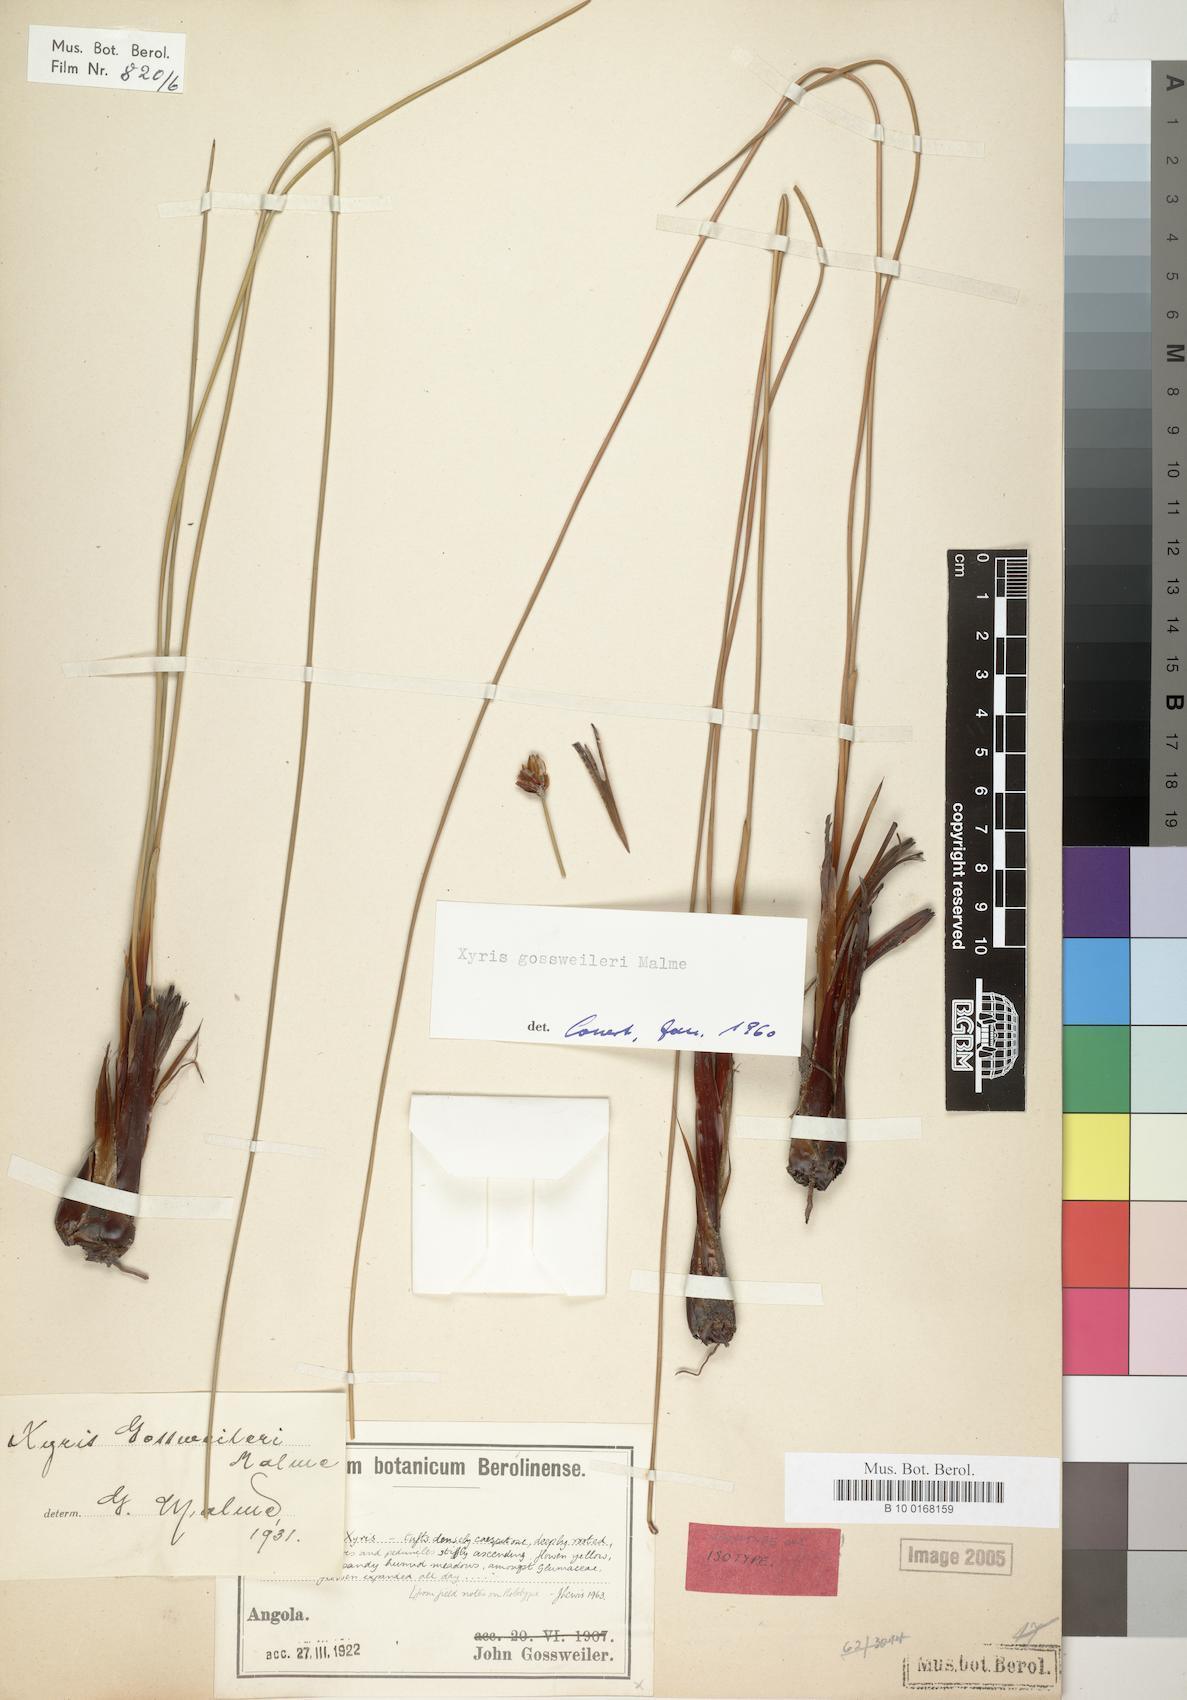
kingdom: Plantae
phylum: Tracheophyta
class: Liliopsida
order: Poales
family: Xyridaceae
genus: Xyris
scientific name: Xyris gossweileri
